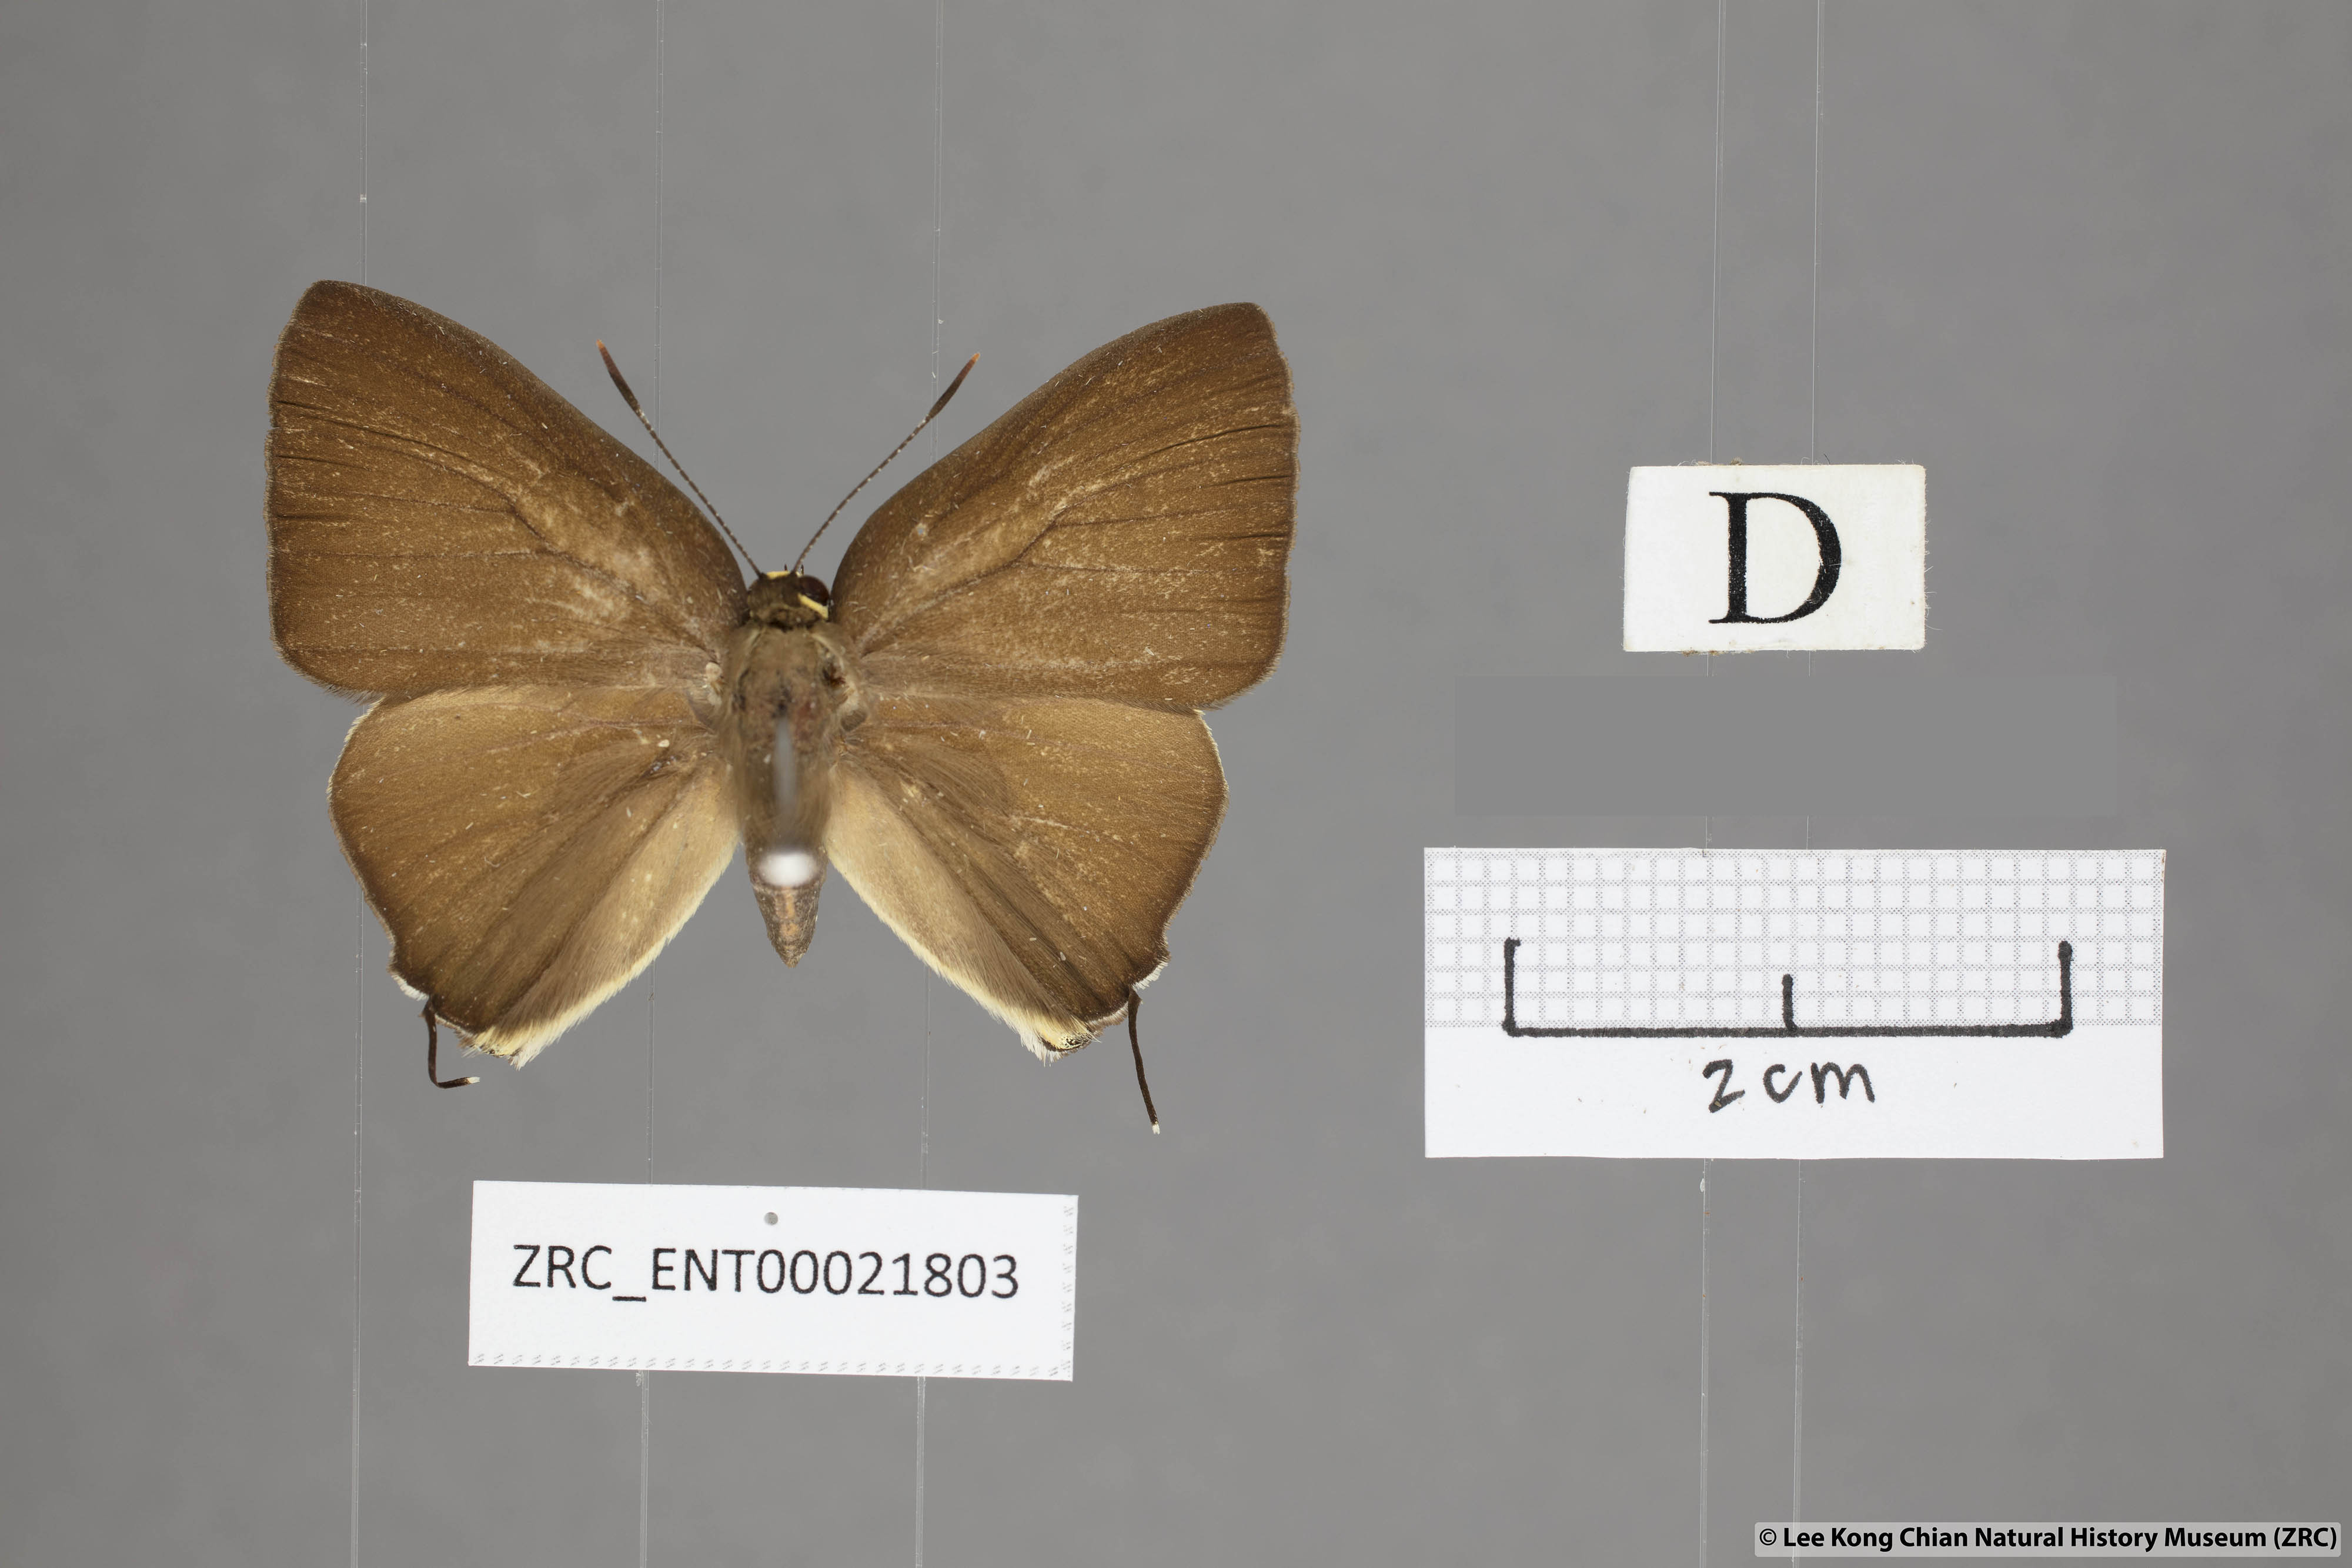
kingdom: Animalia
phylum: Arthropoda
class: Insecta
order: Lepidoptera
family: Lycaenidae
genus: Rapala
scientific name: Rapala domitia
